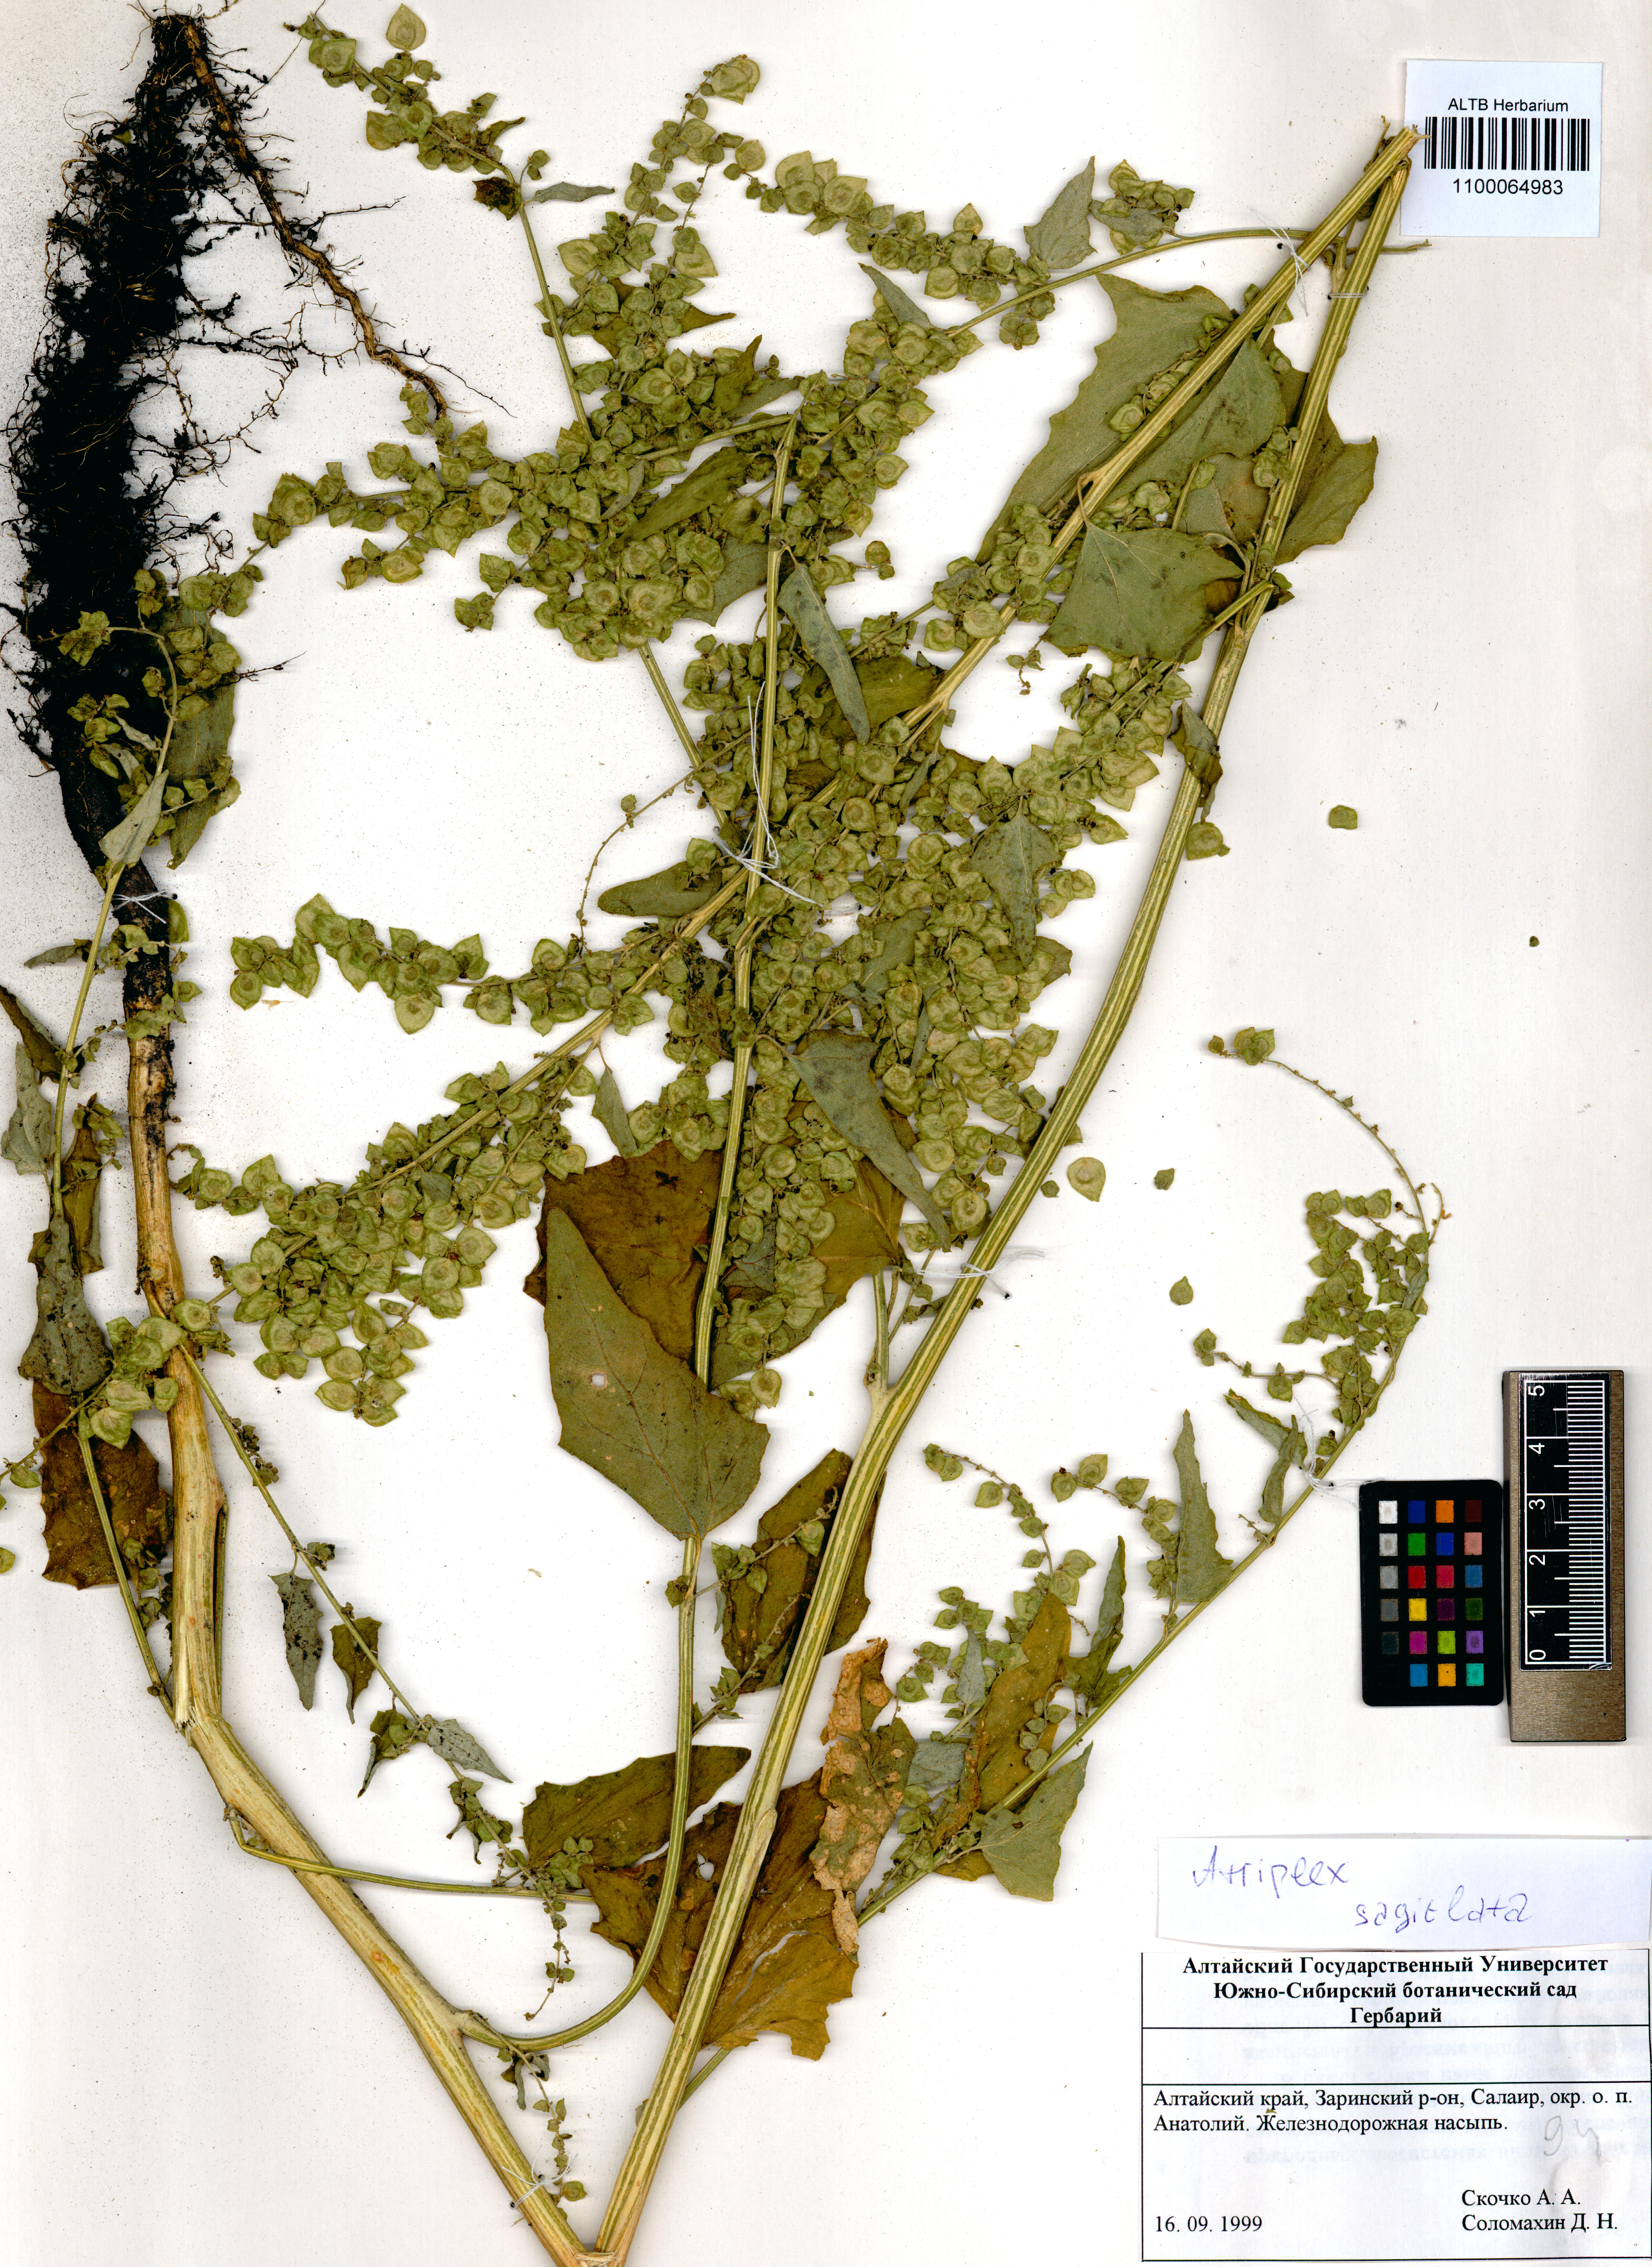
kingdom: Plantae
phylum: Tracheophyta
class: Magnoliopsida
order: Caryophyllales
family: Amaranthaceae
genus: Atriplex
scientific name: Atriplex sagittata
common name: Purple orache
